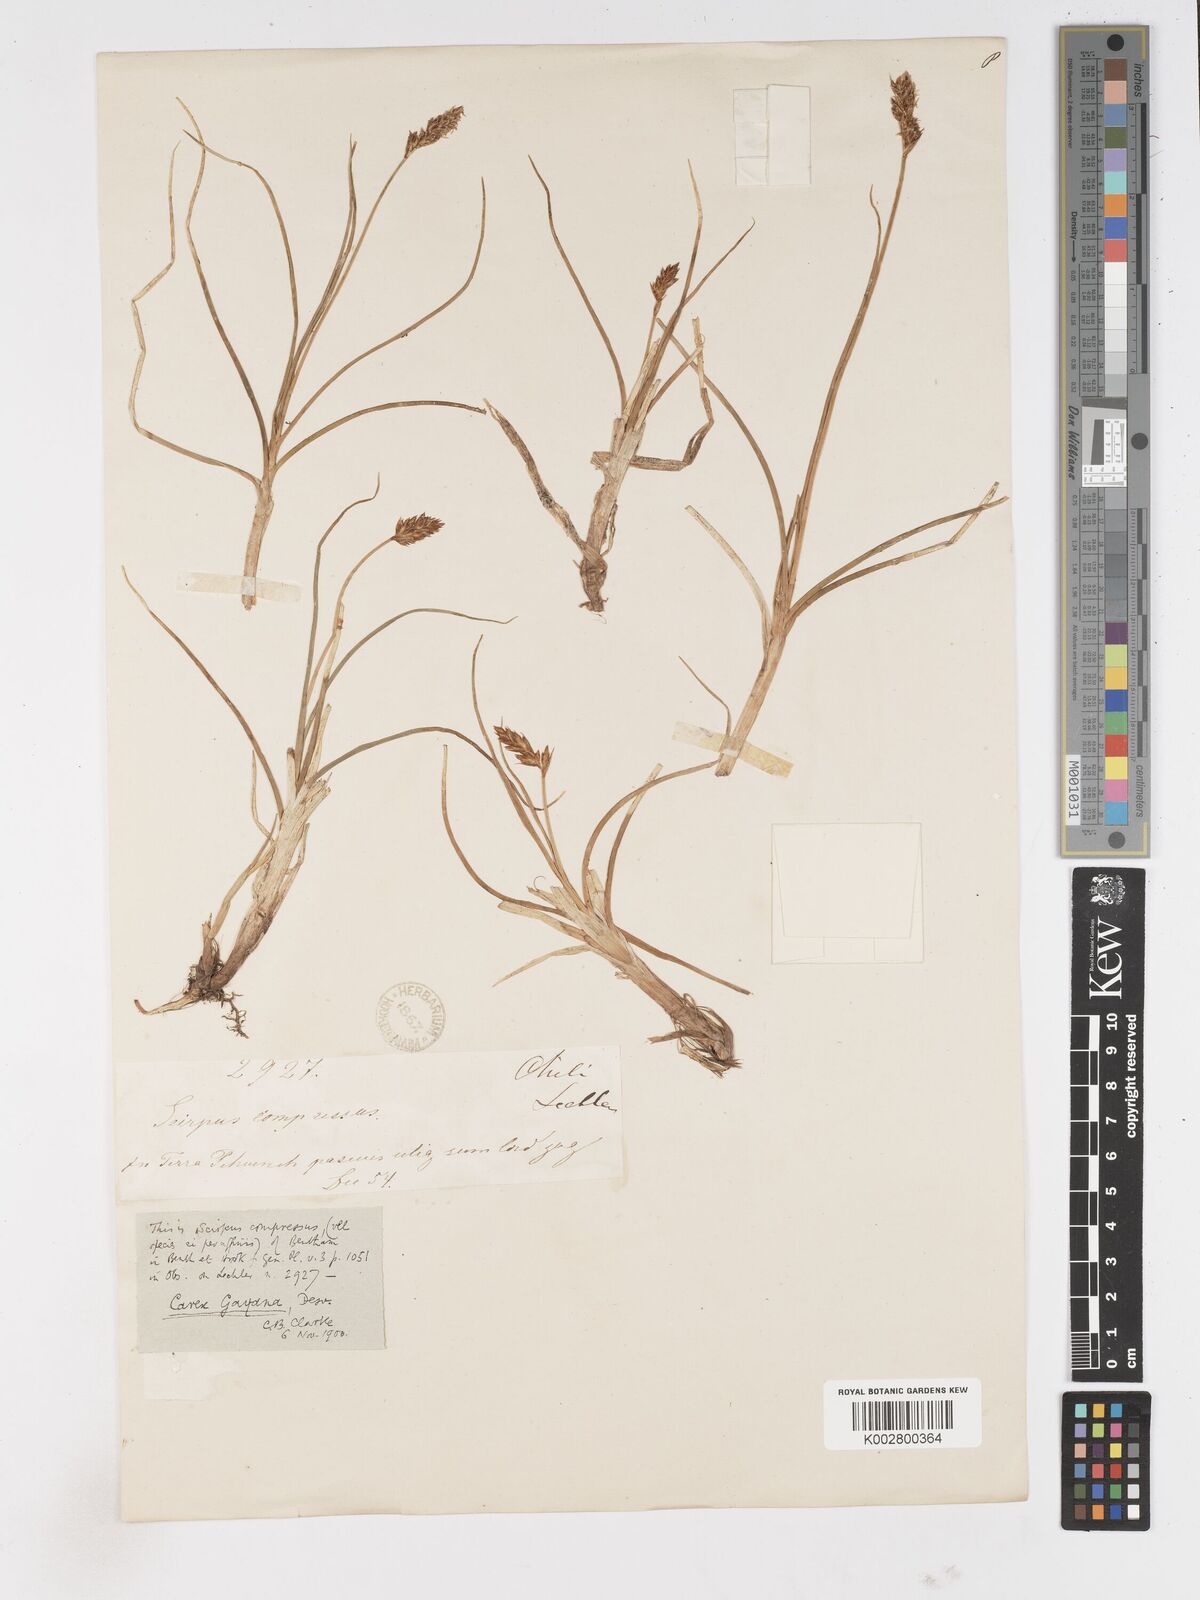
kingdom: Plantae
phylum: Tracheophyta
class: Liliopsida
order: Poales
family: Cyperaceae
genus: Carex
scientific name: Carex gayana
